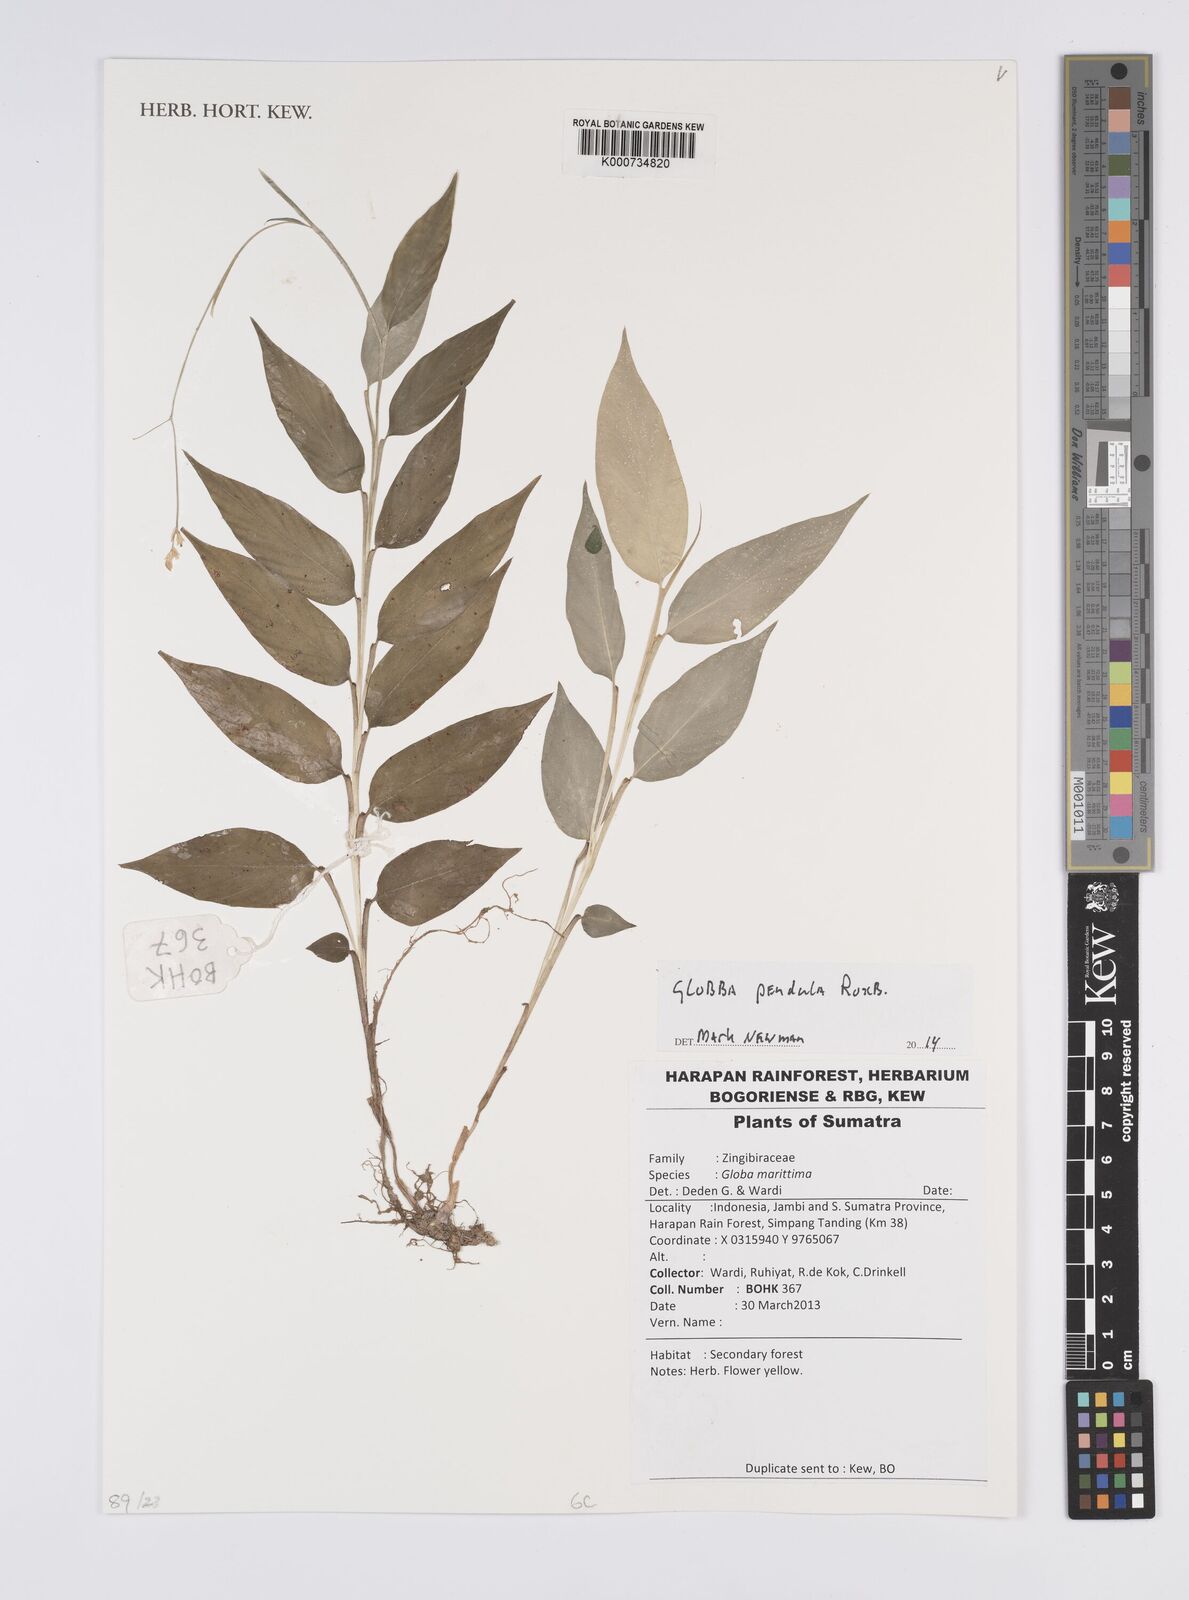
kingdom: Plantae
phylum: Tracheophyta
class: Liliopsida
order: Zingiberales
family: Zingiberaceae
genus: Globba
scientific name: Globba pendula
